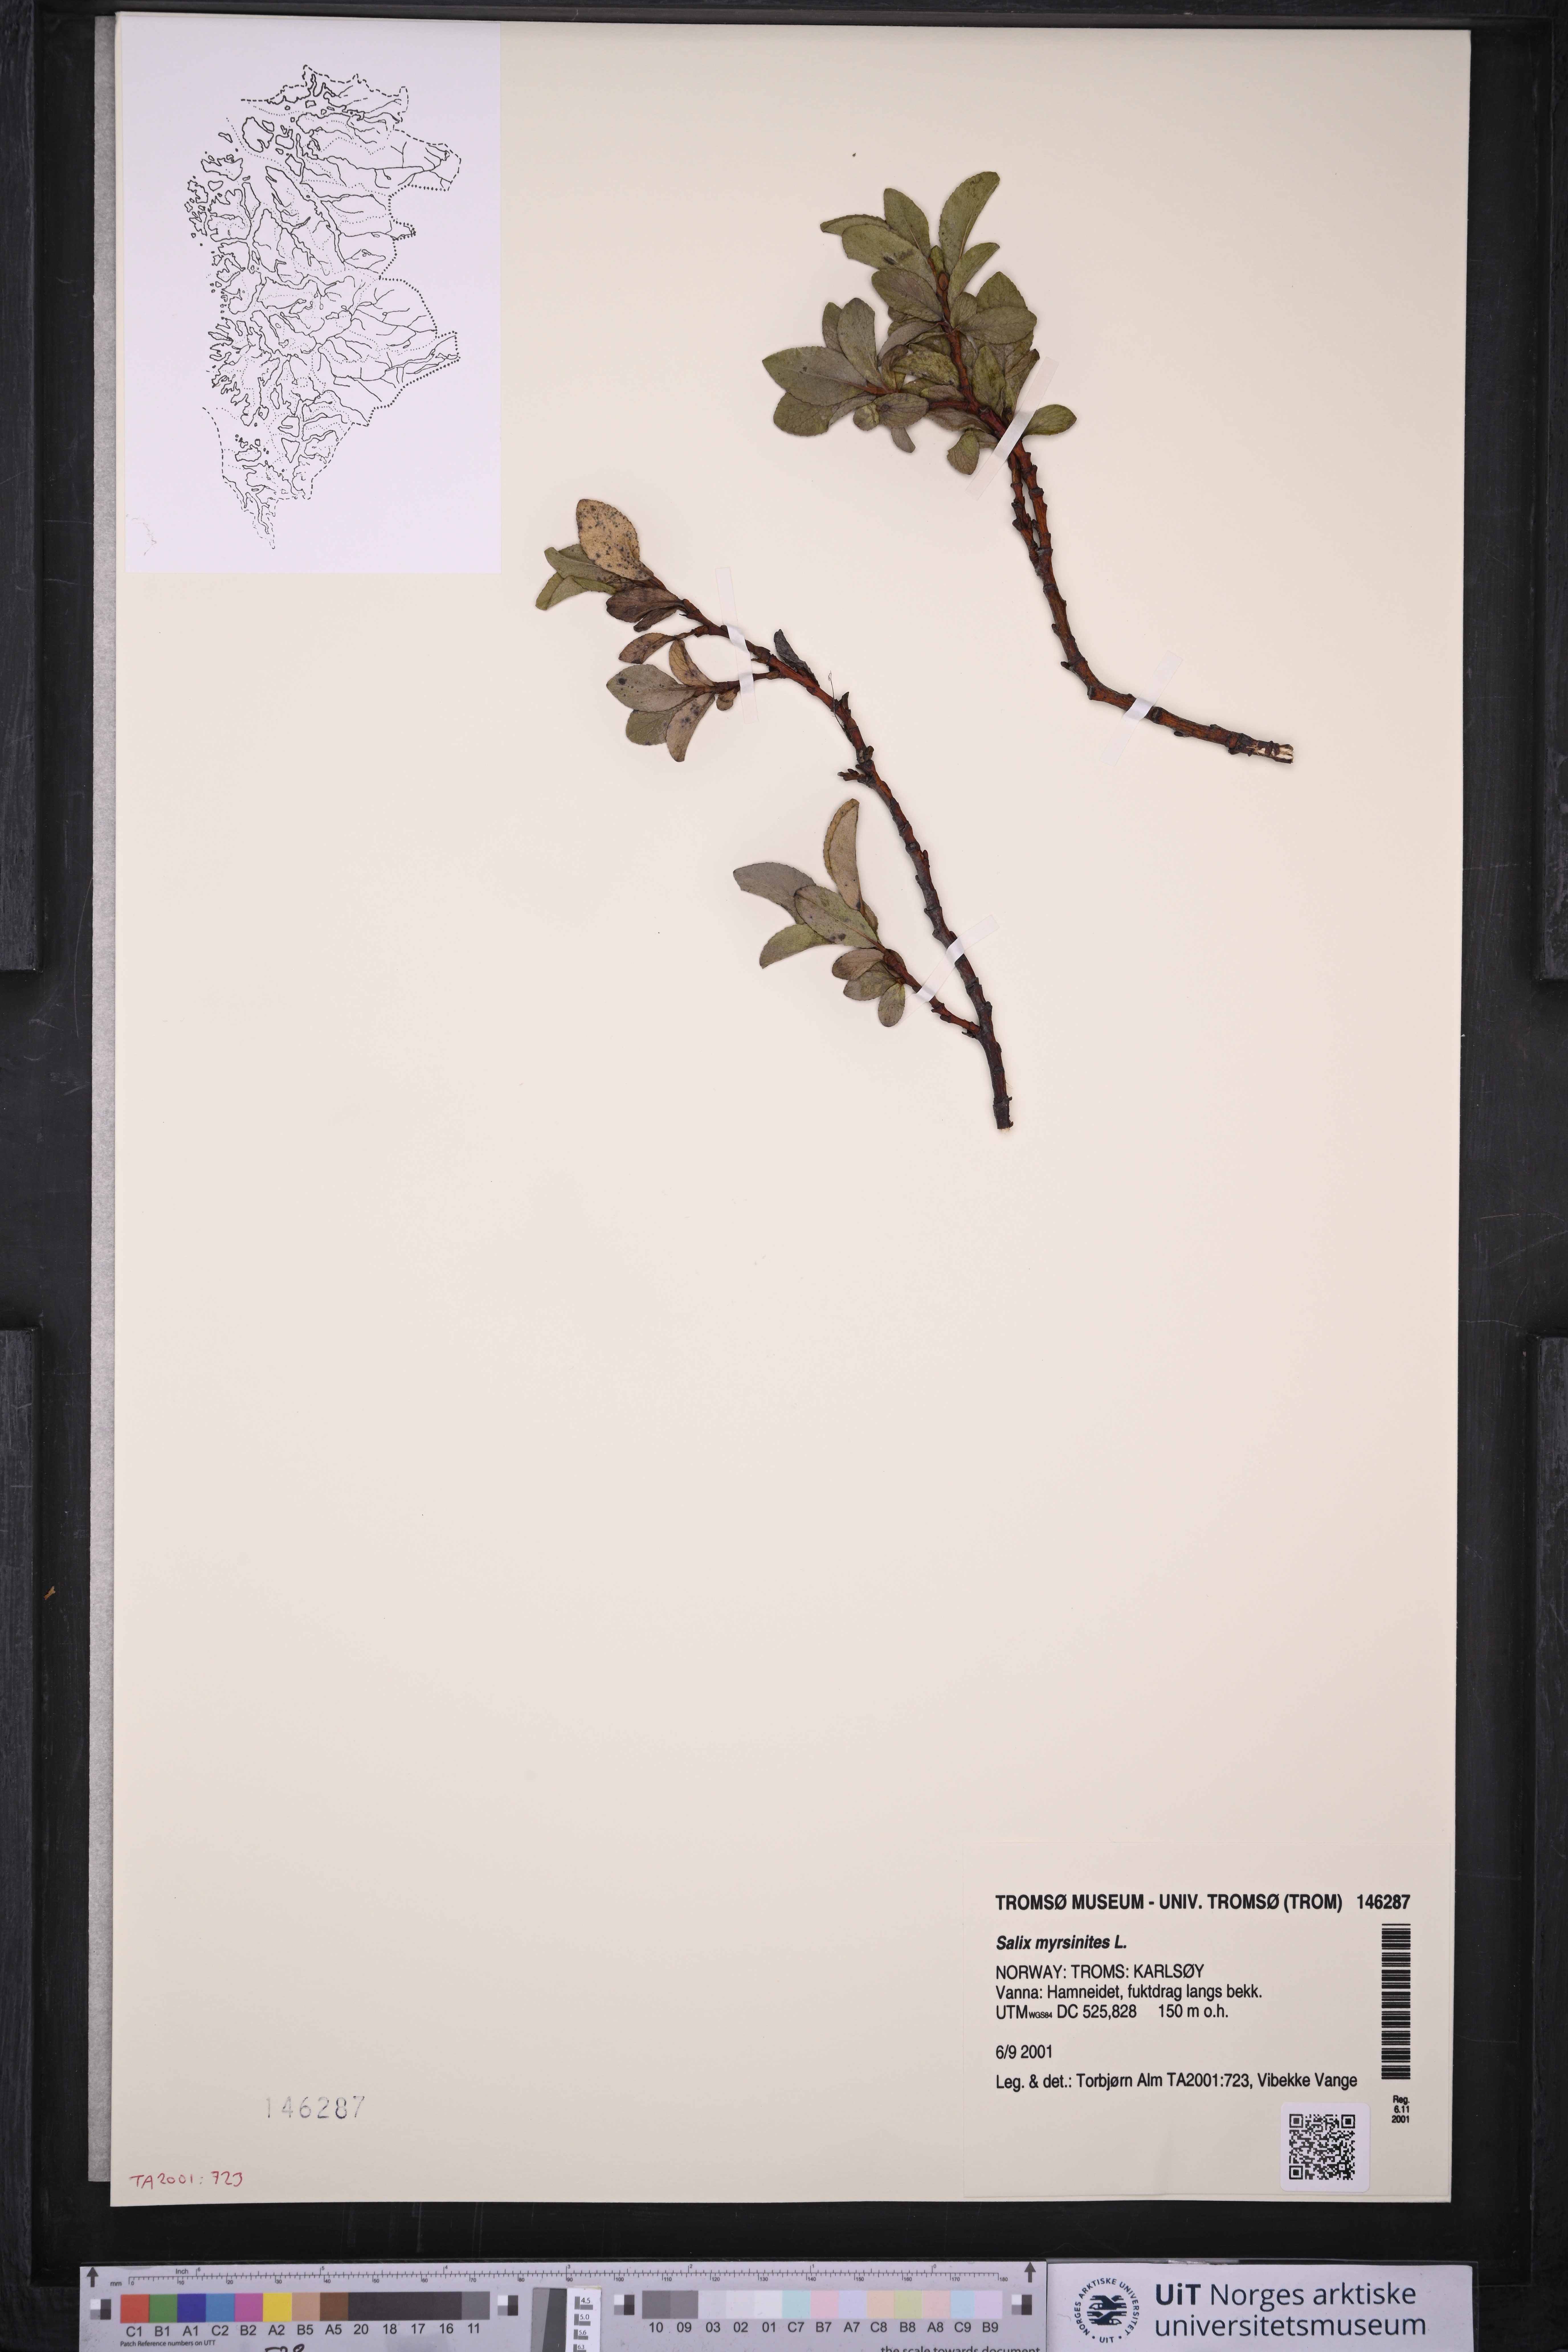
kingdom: Plantae
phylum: Tracheophyta
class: Magnoliopsida
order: Malpighiales
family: Salicaceae
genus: Salix
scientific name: Salix myrsinites
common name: Myrtle willow
